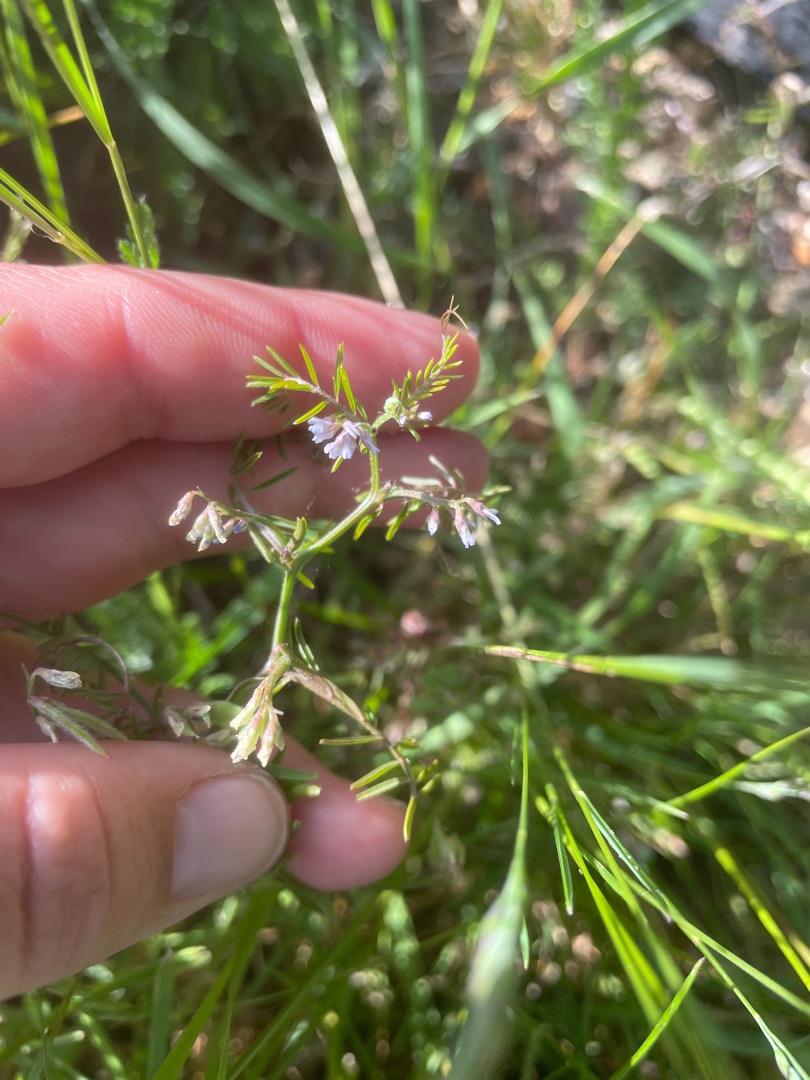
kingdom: Plantae
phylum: Tracheophyta
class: Magnoliopsida
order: Fabales
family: Fabaceae
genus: Vicia
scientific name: Vicia hirsuta
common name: Tofrøet vikke
